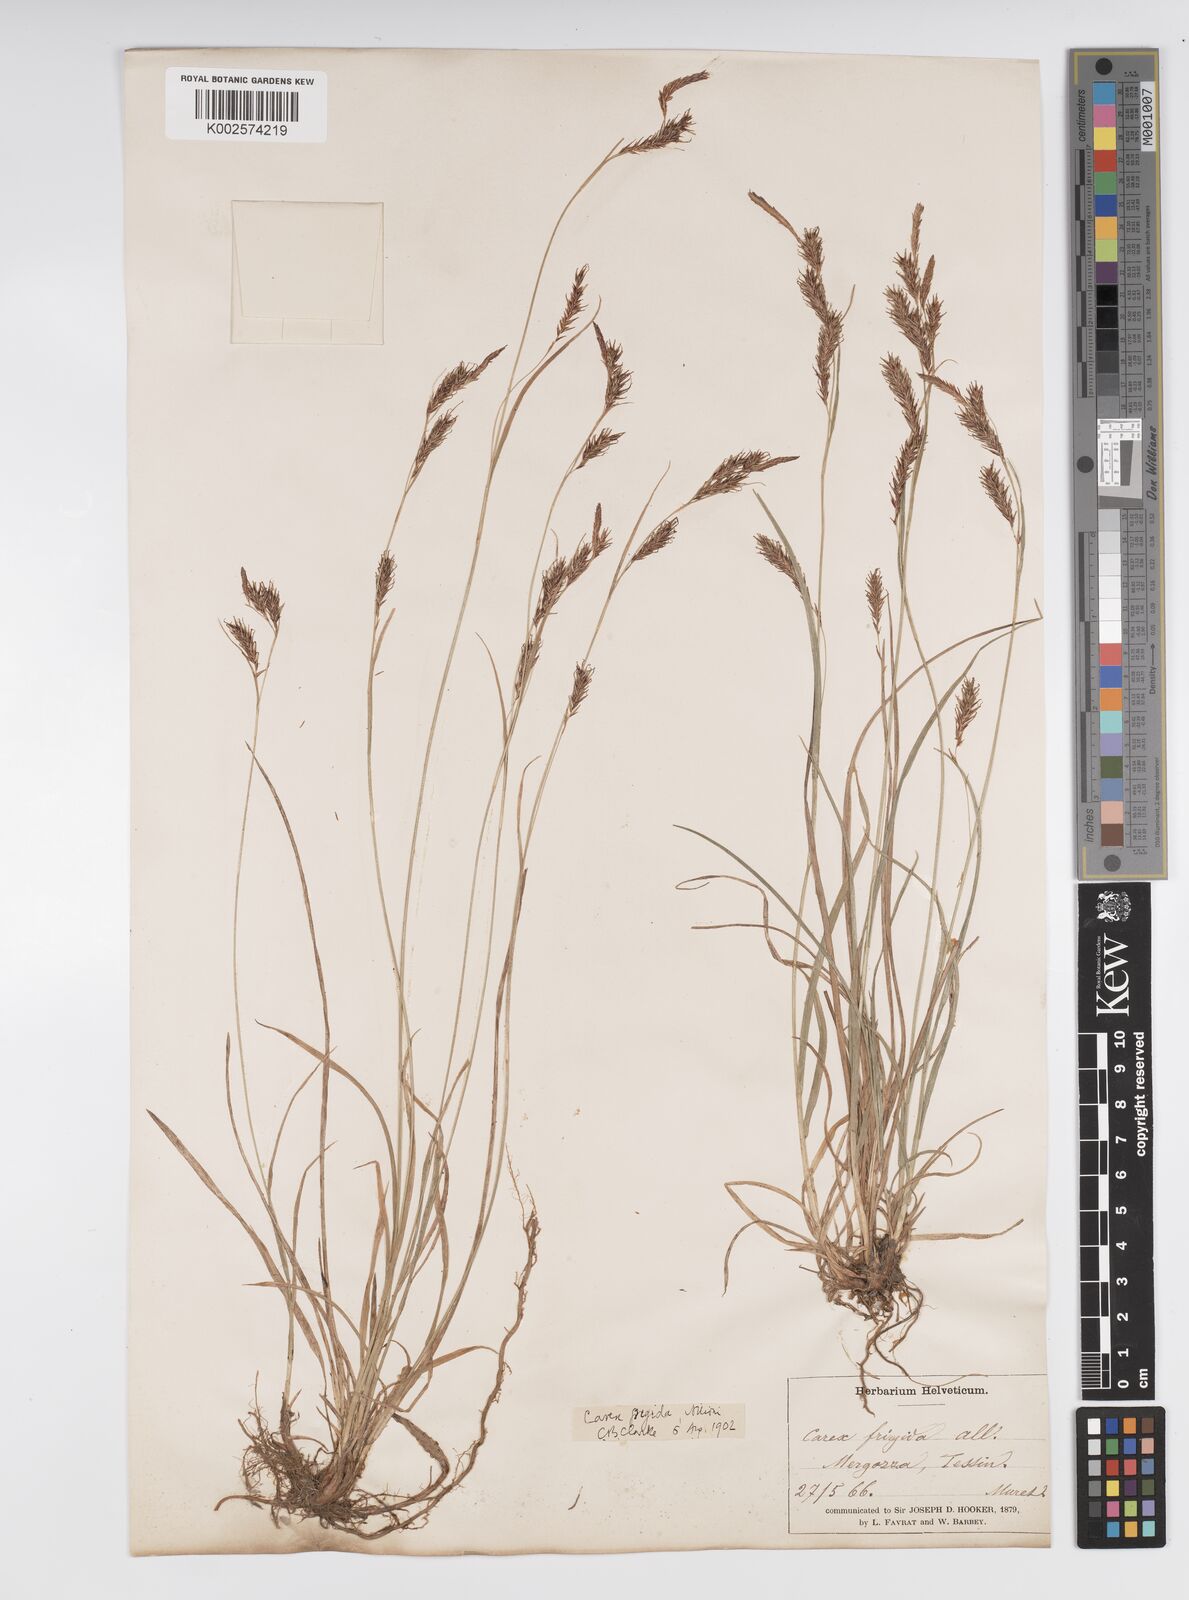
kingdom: Plantae
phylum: Tracheophyta
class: Liliopsida
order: Poales
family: Cyperaceae
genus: Carex
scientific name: Carex frigida
